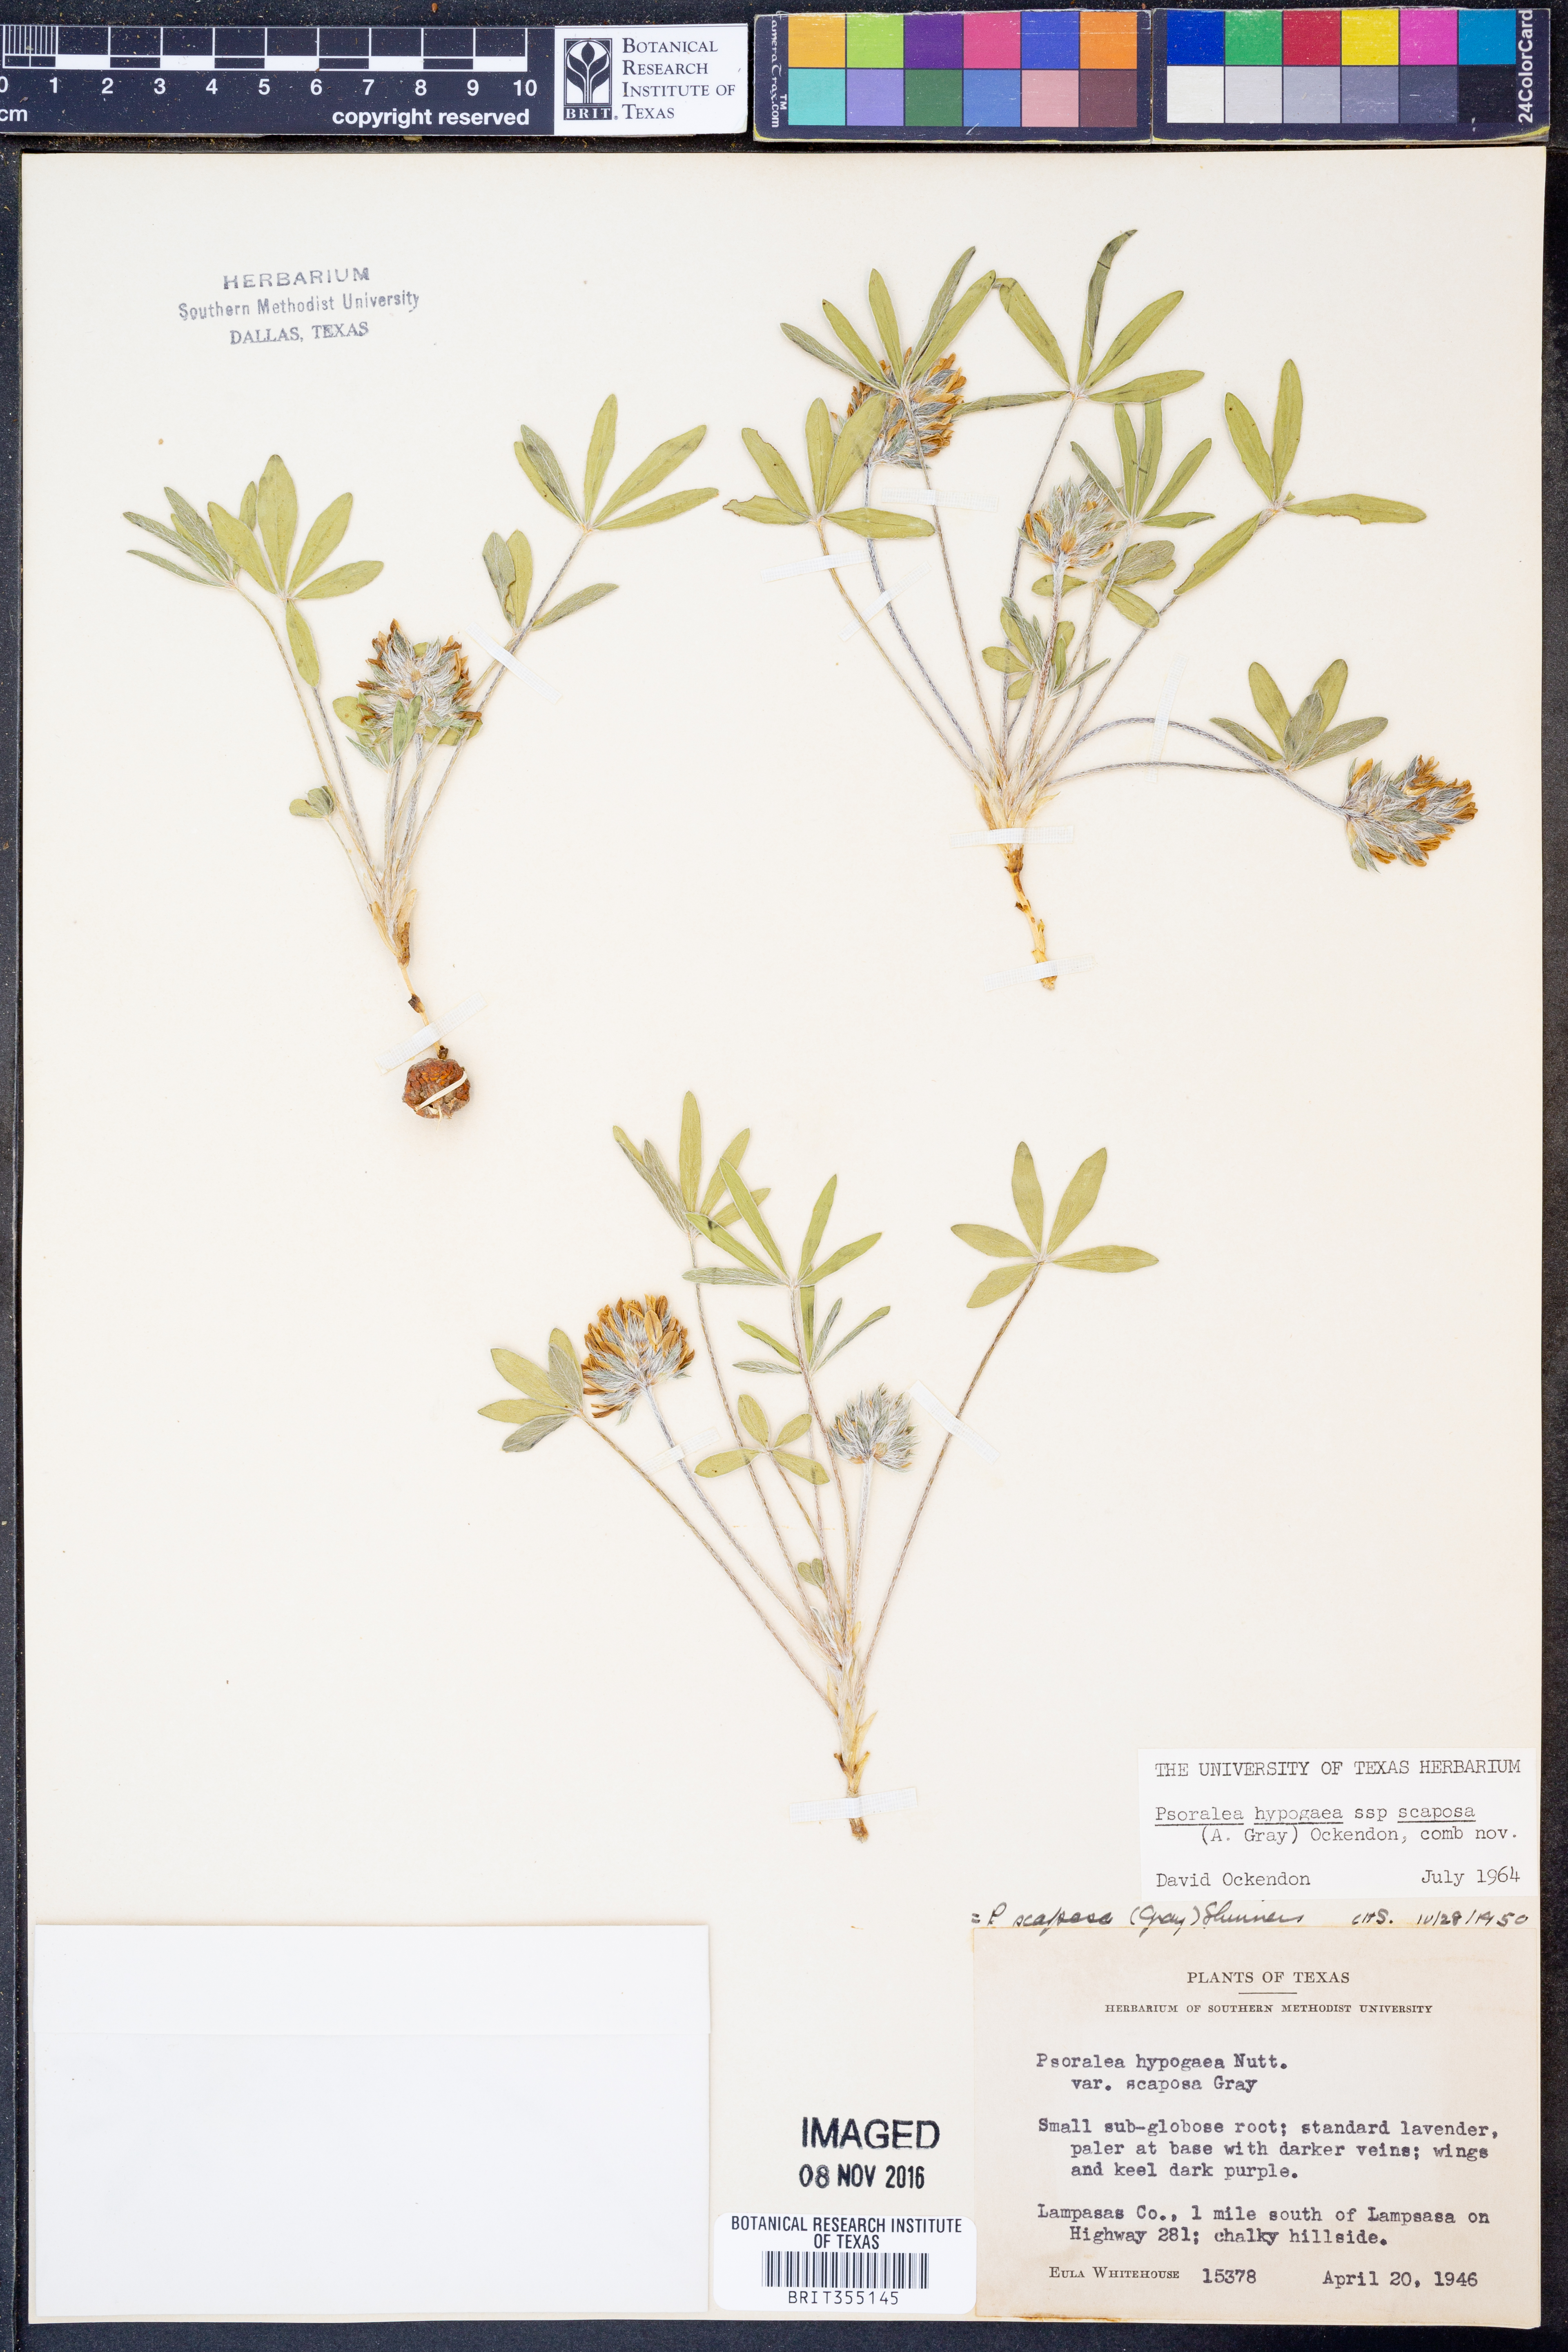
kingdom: Plantae
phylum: Tracheophyta
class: Magnoliopsida
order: Fabales
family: Fabaceae
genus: Pediomelum
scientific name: Pediomelum hypogaeum
